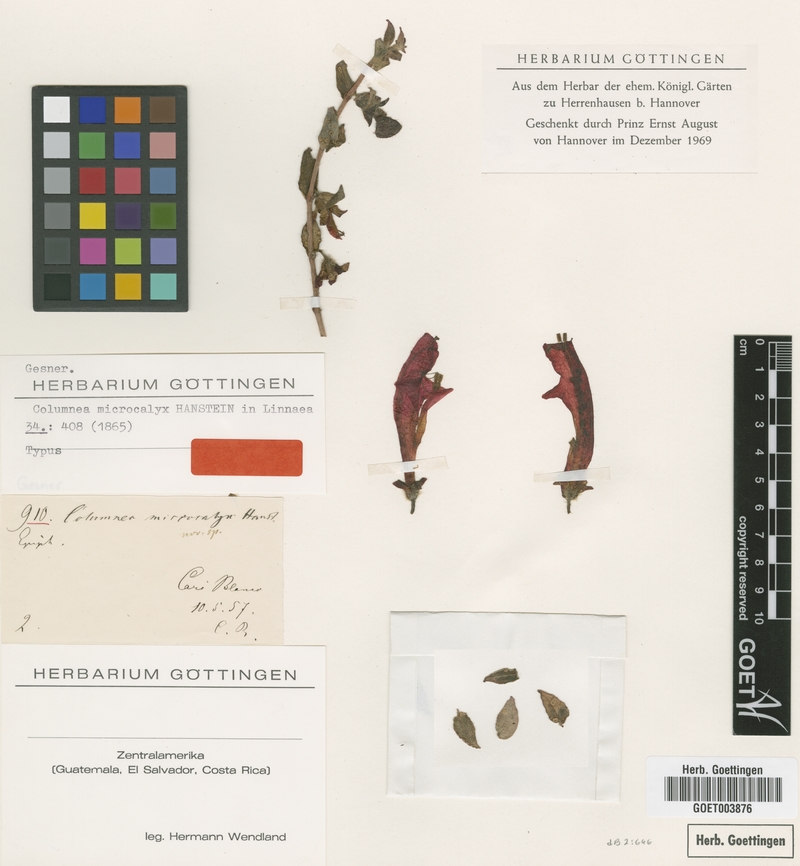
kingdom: Plantae
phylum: Tracheophyta
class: Magnoliopsida
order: Lamiales
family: Gesneriaceae
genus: Columnea
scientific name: Columnea microcalyx
